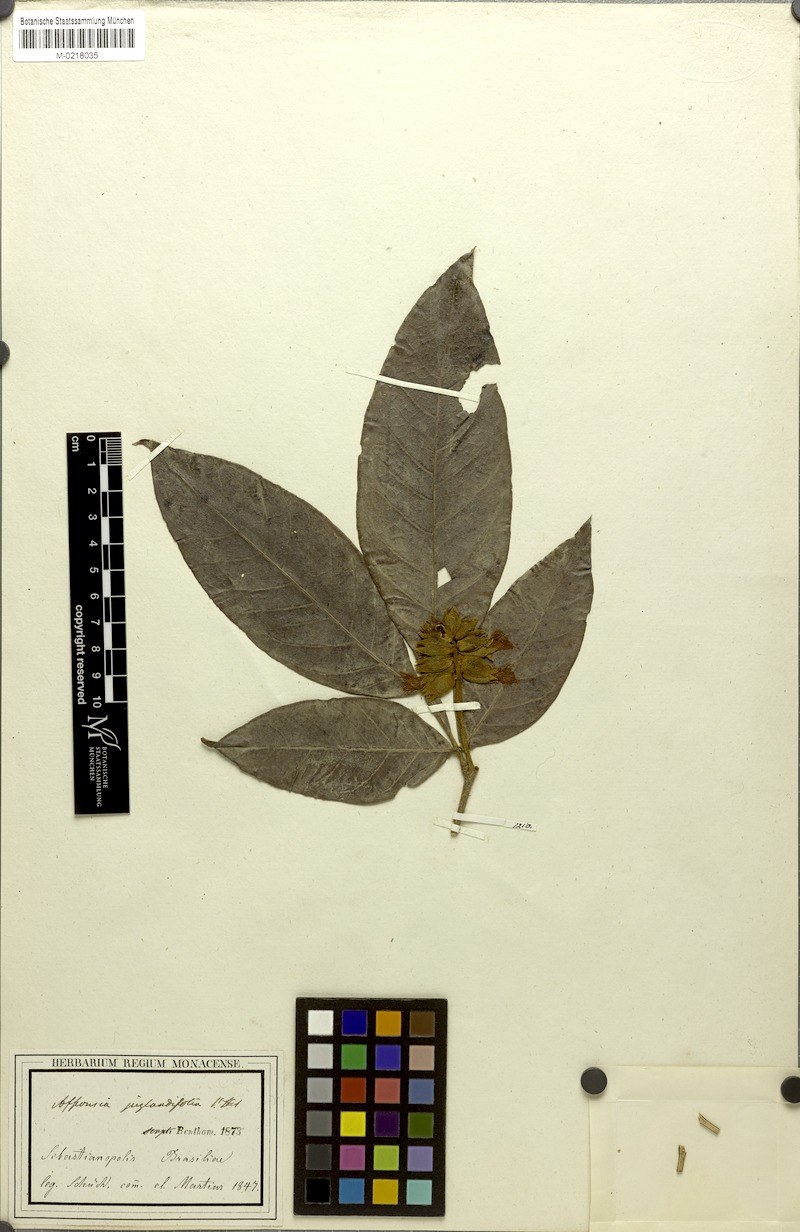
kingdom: Plantae
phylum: Tracheophyta
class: Magnoliopsida
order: Fabales
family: Fabaceae
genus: Inga
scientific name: Inga globularis
